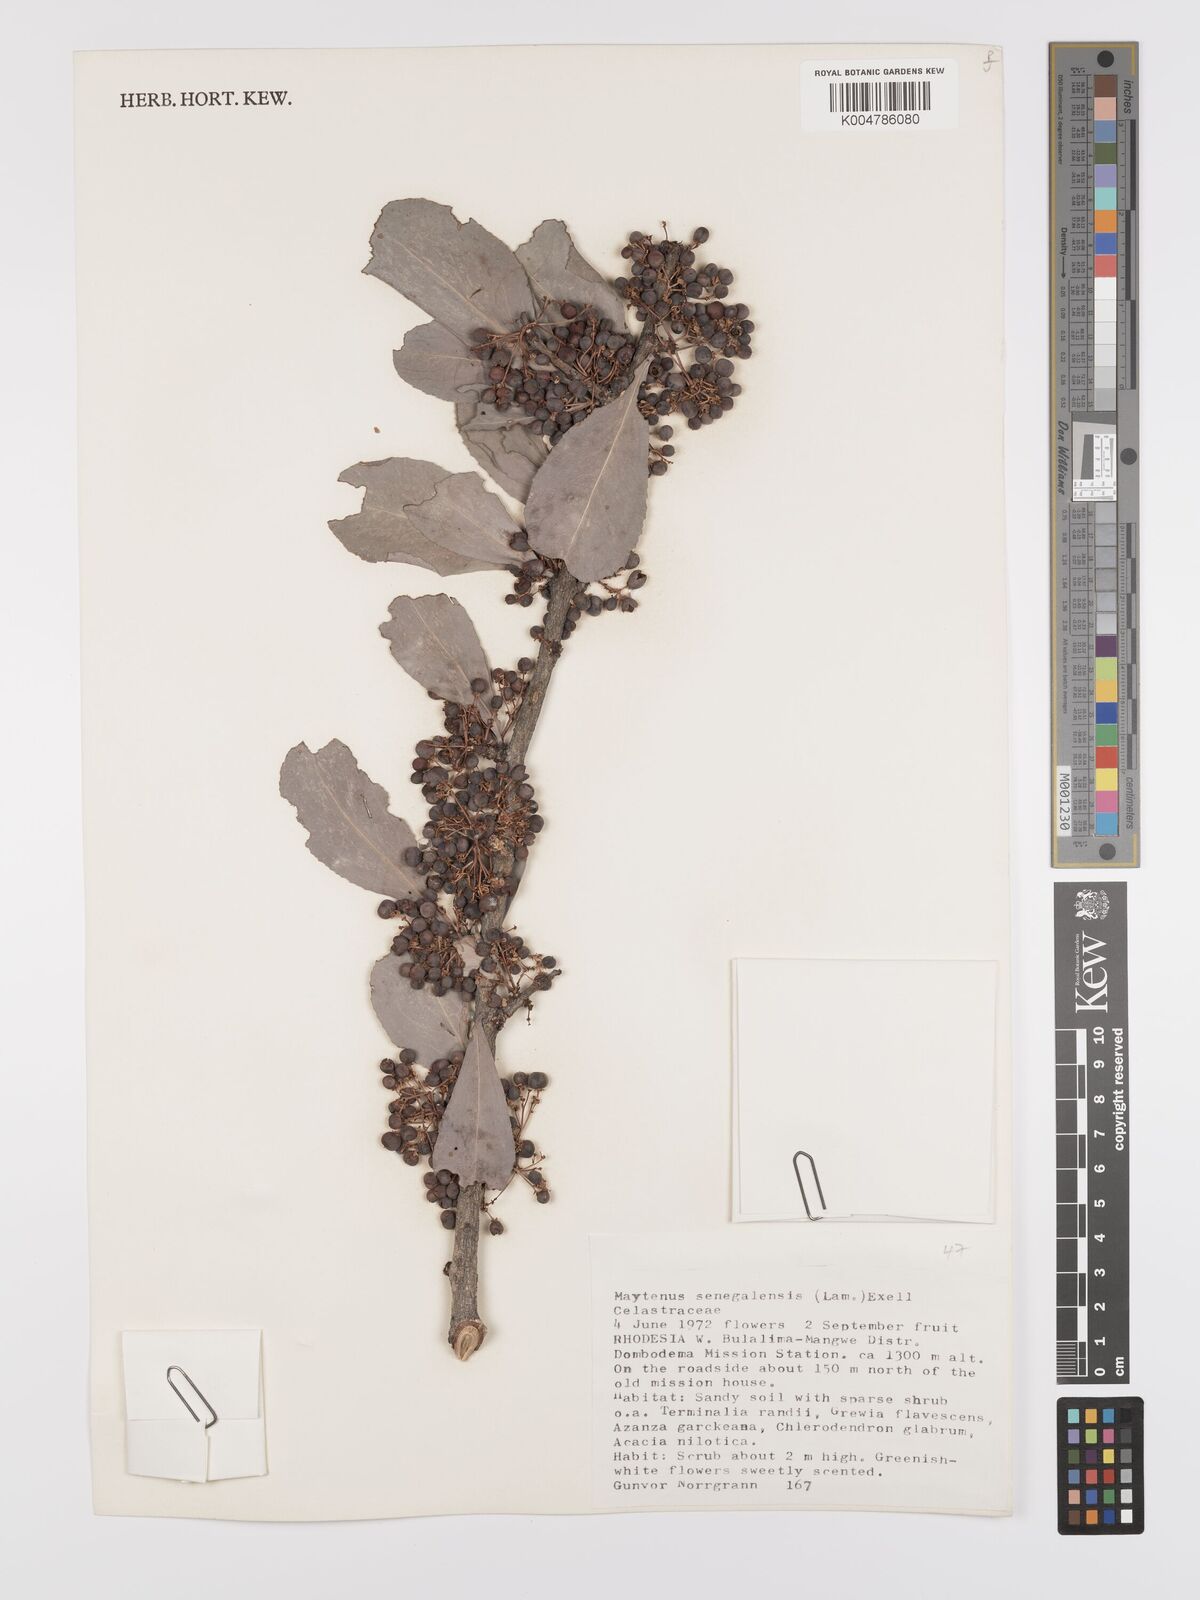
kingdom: Plantae
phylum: Tracheophyta
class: Magnoliopsida
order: Celastrales
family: Celastraceae
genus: Gymnosporia
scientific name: Gymnosporia senegalensis
